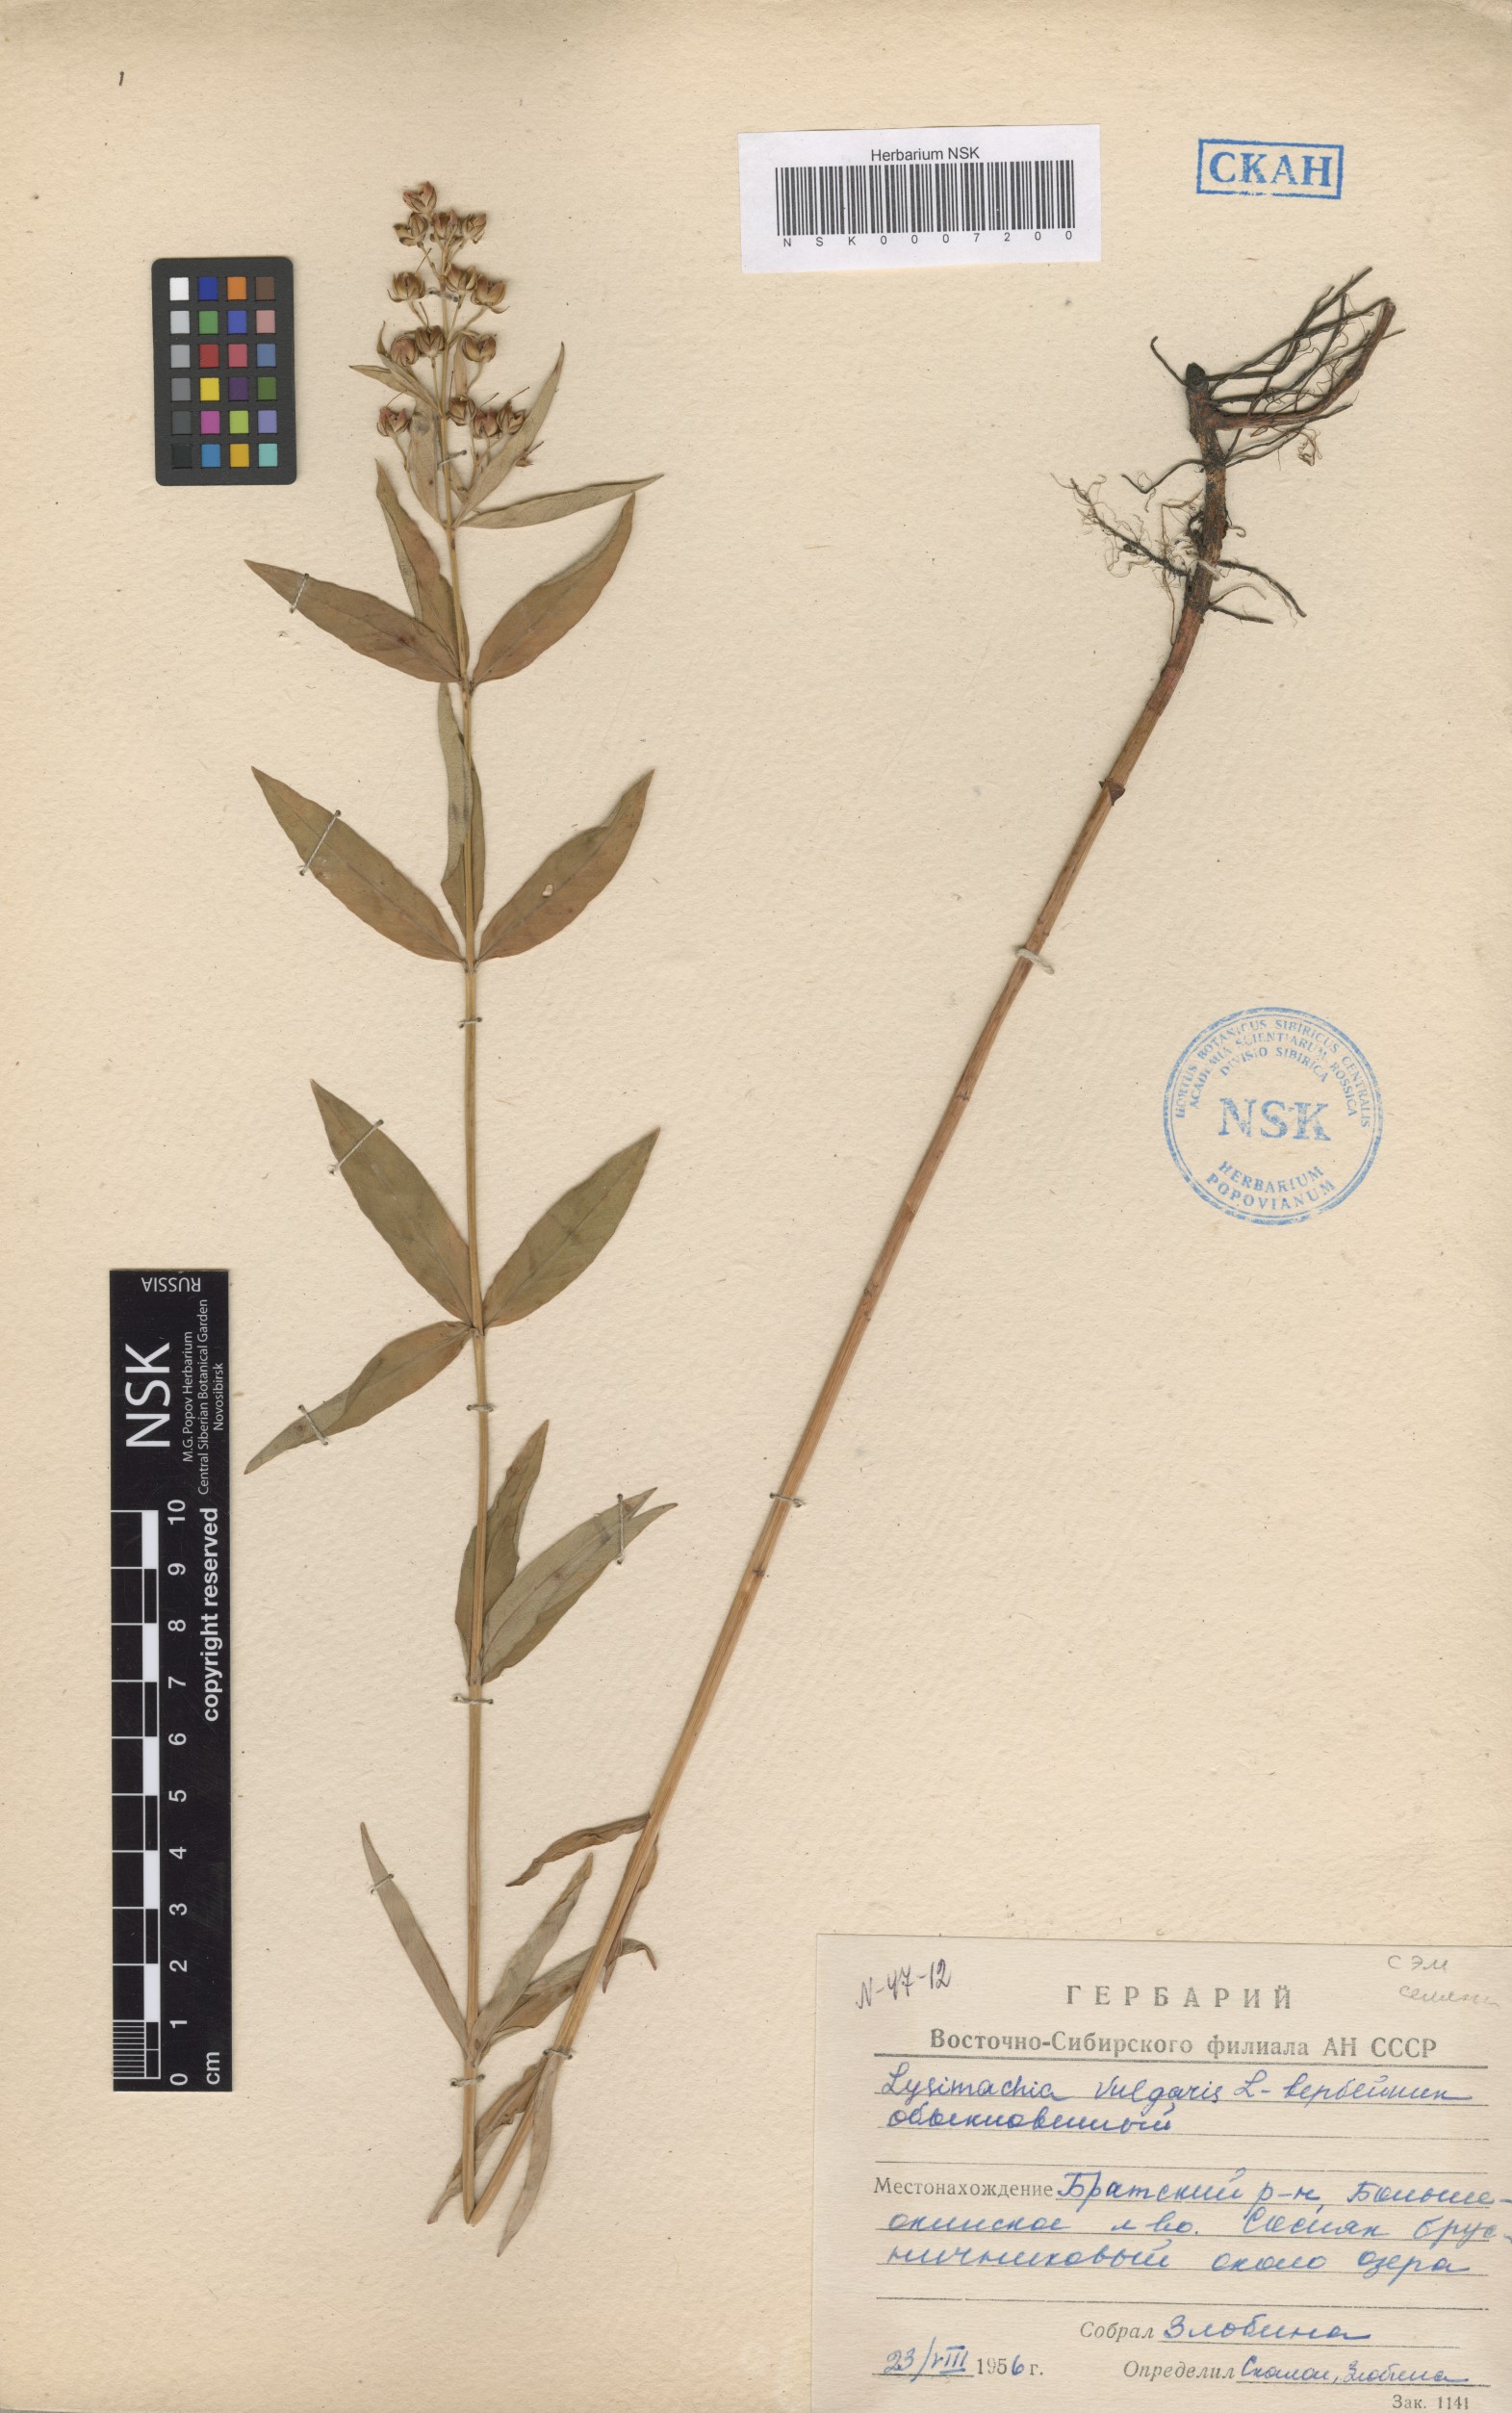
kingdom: Plantae
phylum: Tracheophyta
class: Magnoliopsida
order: Ericales
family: Primulaceae
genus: Lysimachia
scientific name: Lysimachia vulgaris
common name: Yellow loosestrife
